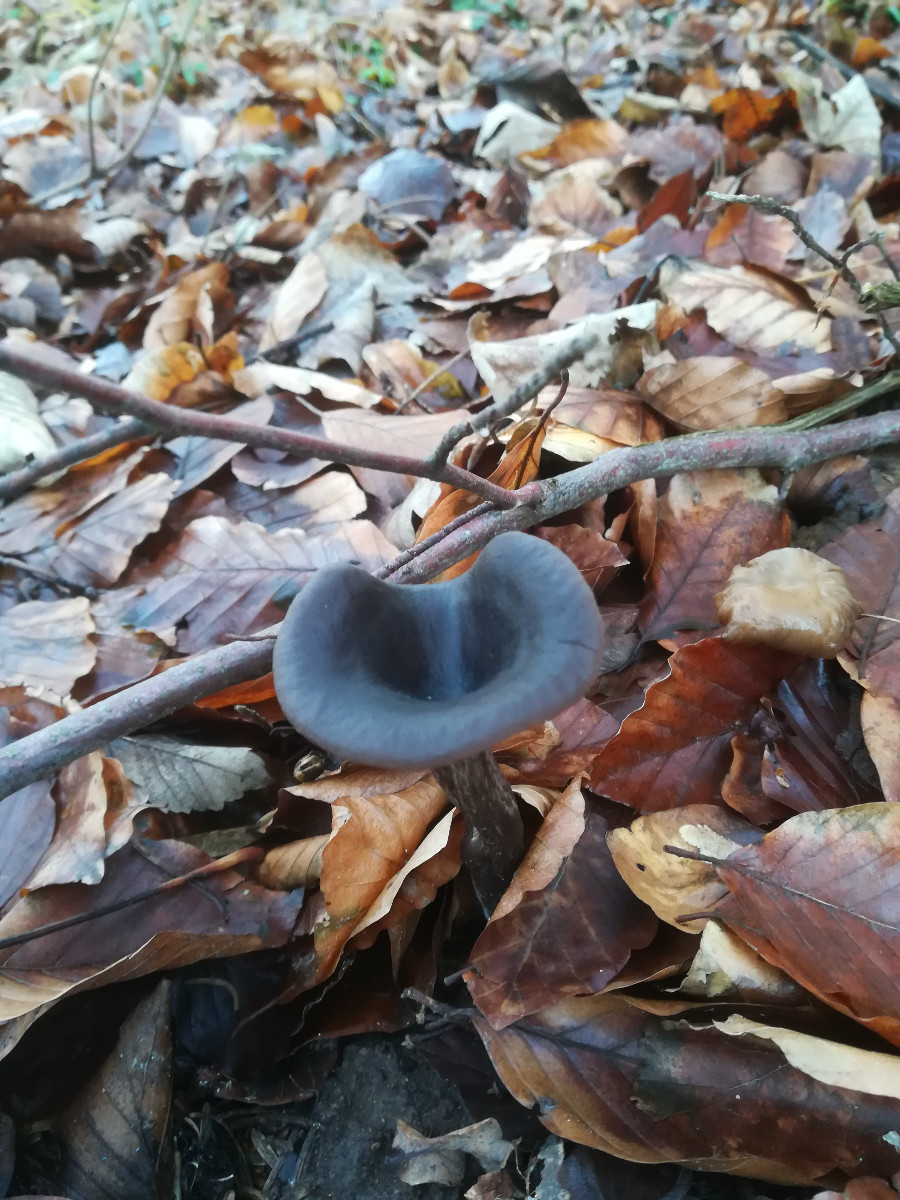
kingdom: Fungi
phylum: Basidiomycota
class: Agaricomycetes
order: Agaricales
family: Pseudoclitocybaceae
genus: Pseudoclitocybe
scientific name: Pseudoclitocybe cyathiformis
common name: almindelig bægertragthat
